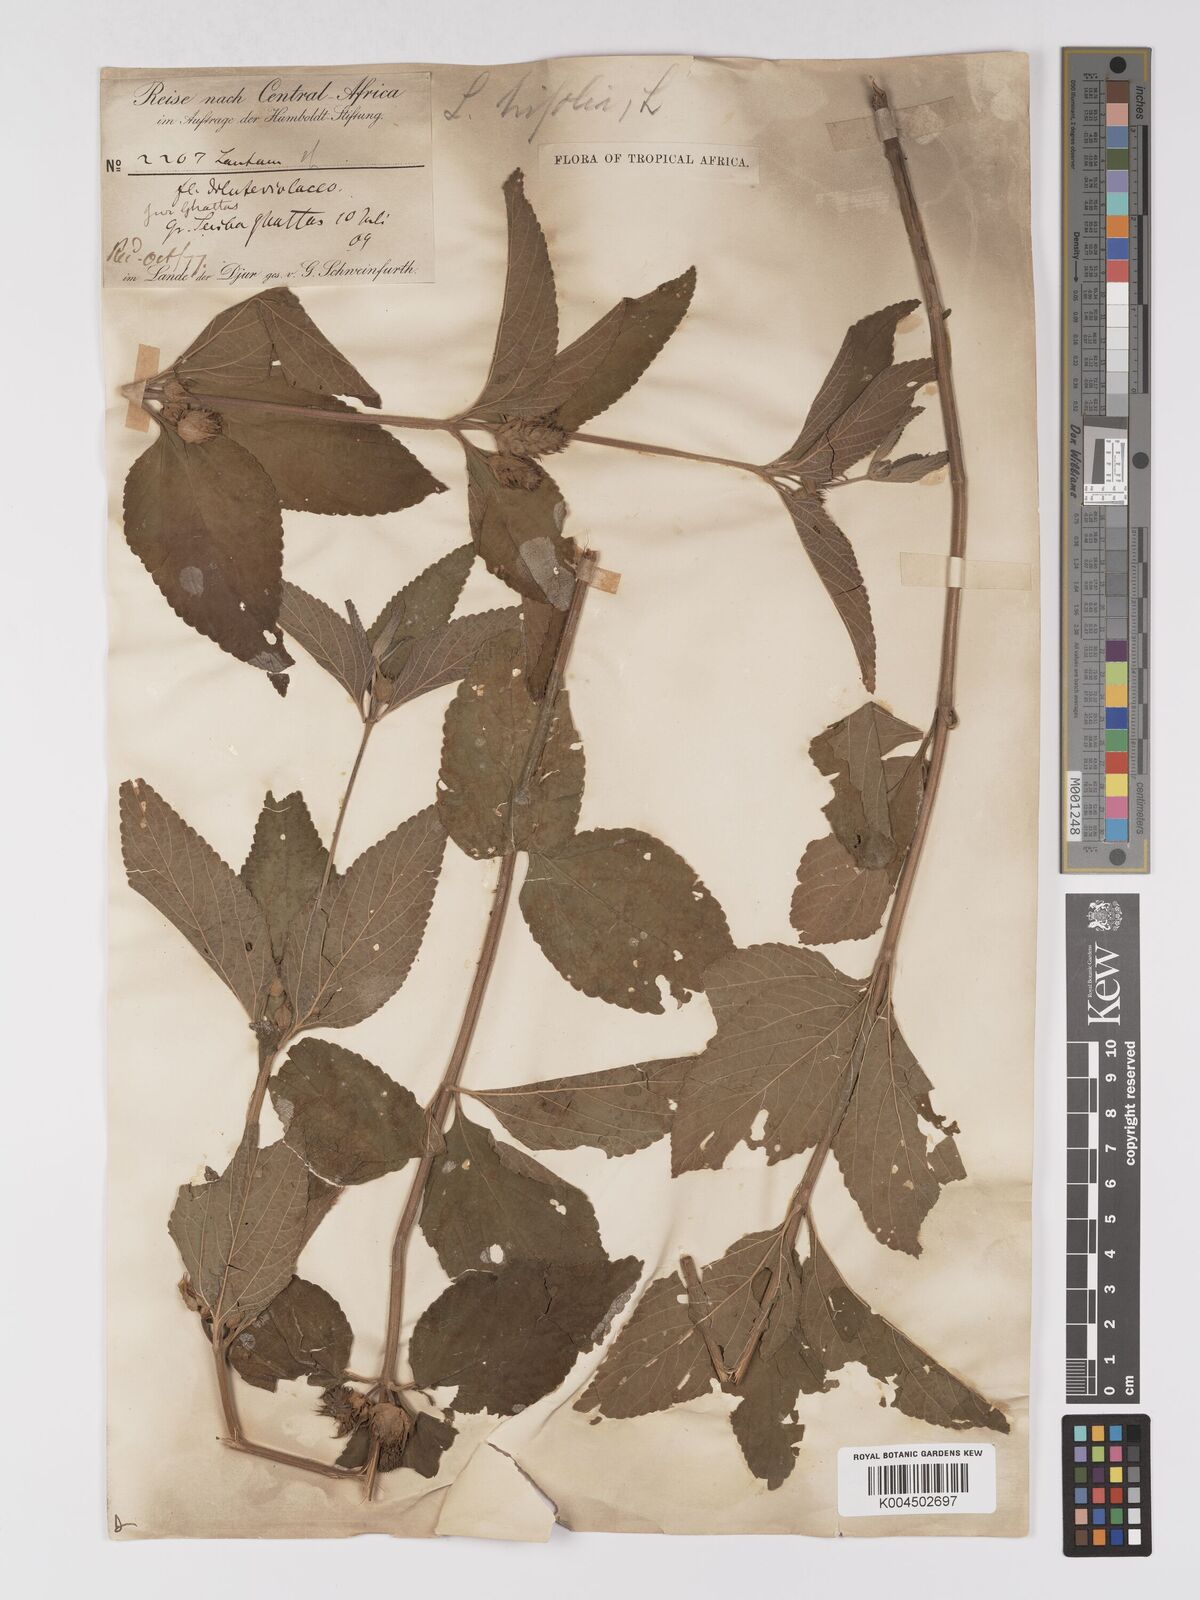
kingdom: Plantae
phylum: Tracheophyta
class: Magnoliopsida
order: Lamiales
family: Verbenaceae
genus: Lantana
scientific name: Lantana ukambensis
